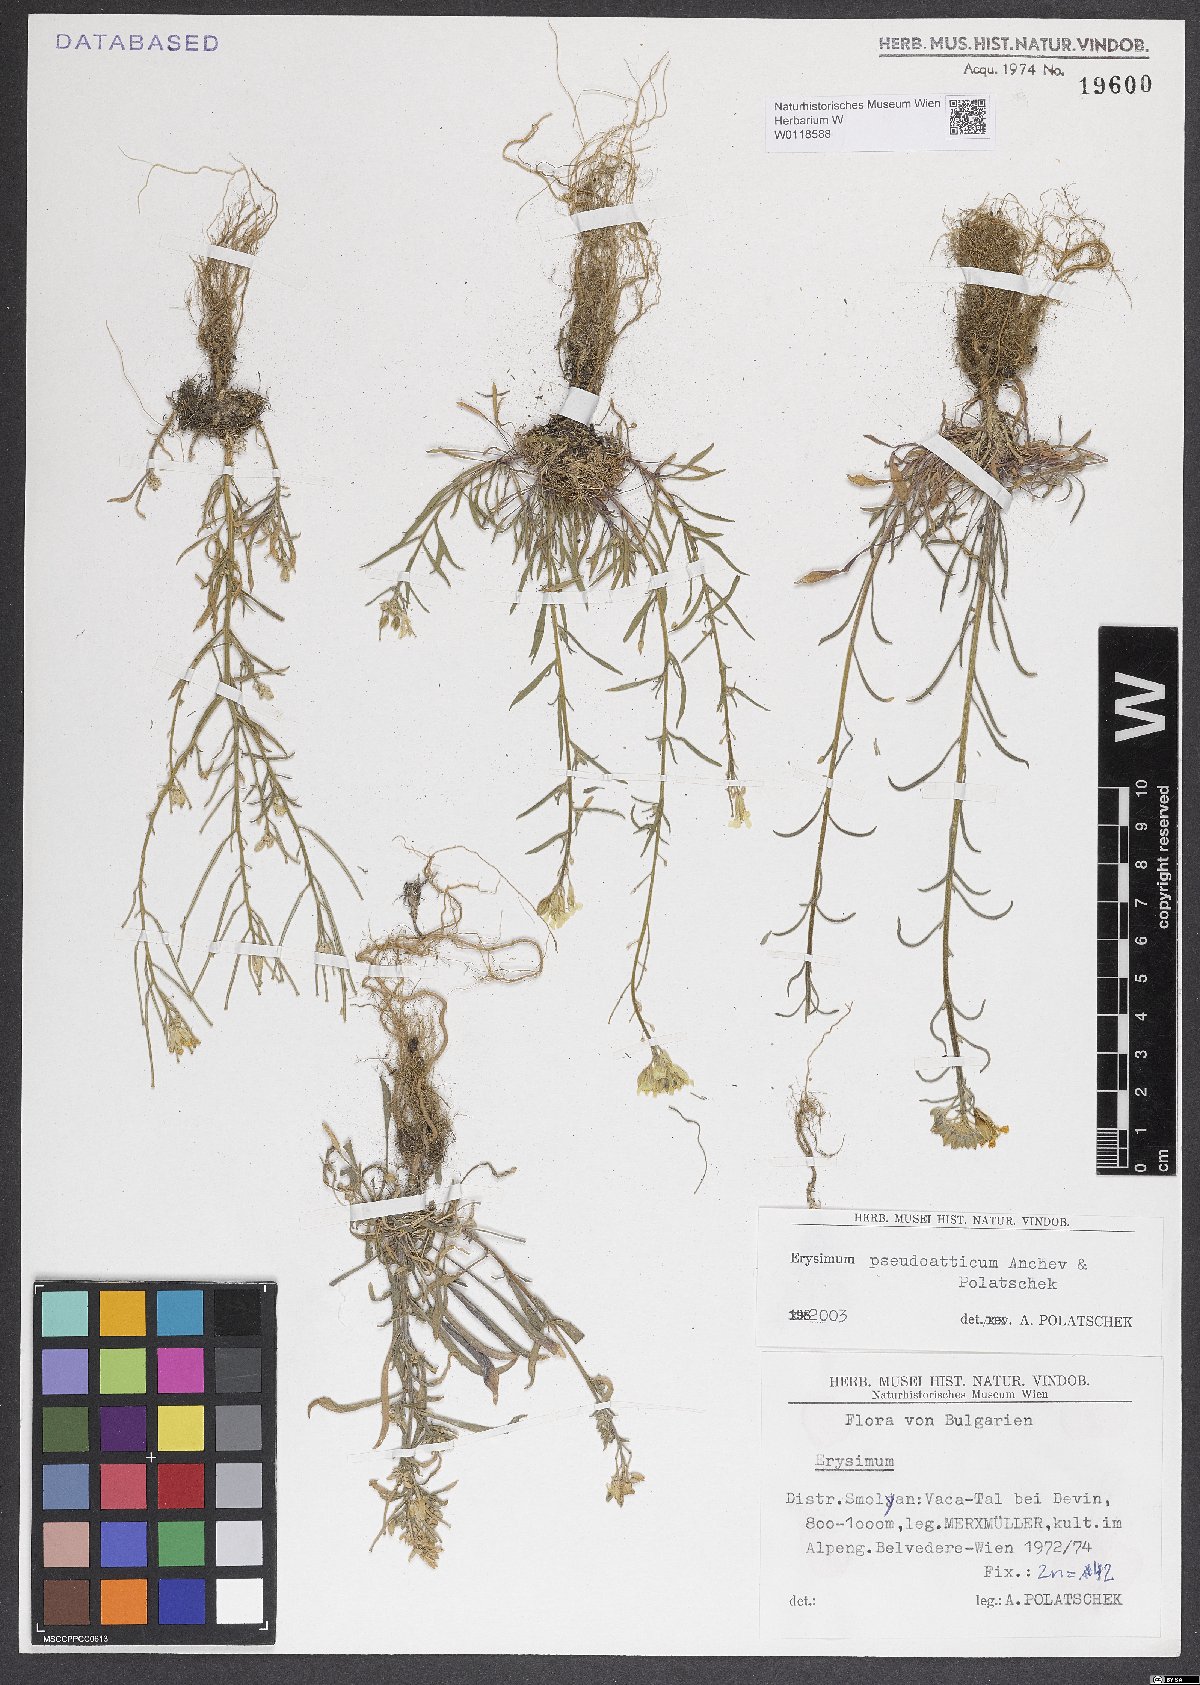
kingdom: Plantae
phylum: Tracheophyta
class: Magnoliopsida
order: Brassicales
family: Brassicaceae
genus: Erysimum
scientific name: Erysimum pseudoatticum
